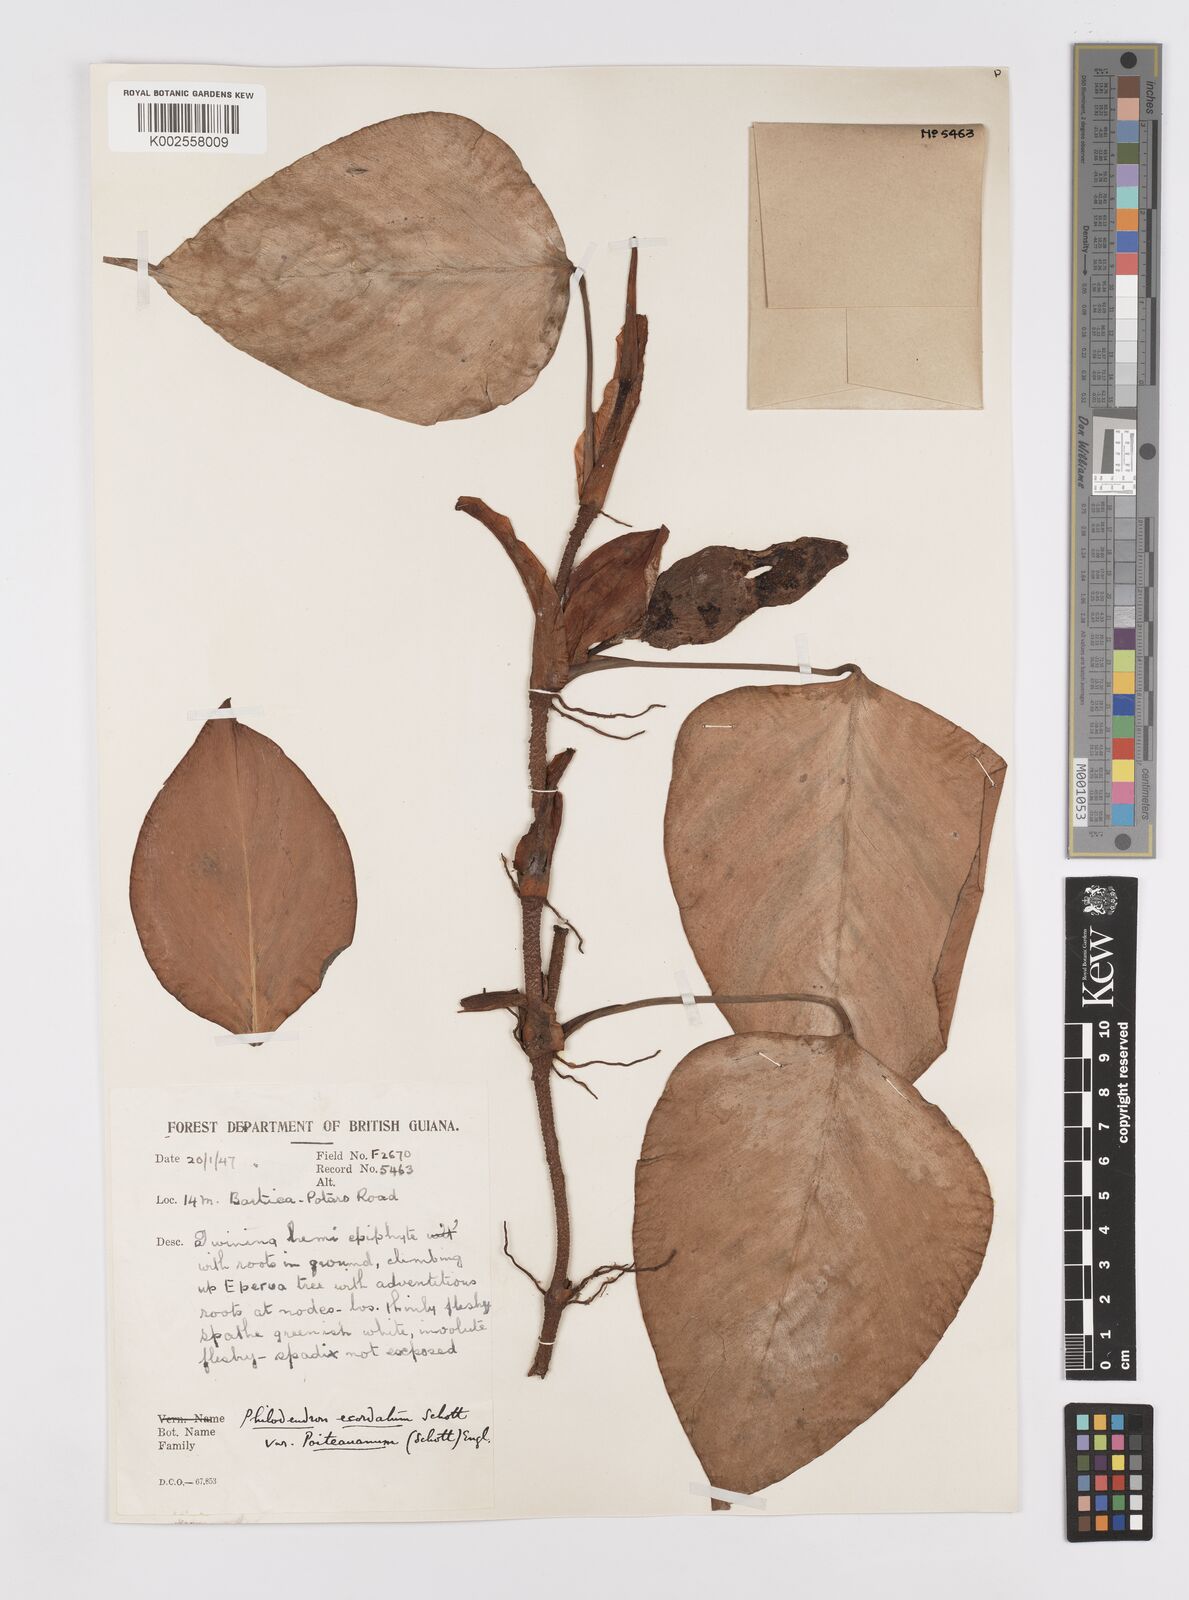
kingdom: Plantae
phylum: Tracheophyta
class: Liliopsida
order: Alismatales
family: Araceae
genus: Philodendron
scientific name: Philodendron ecordatum
